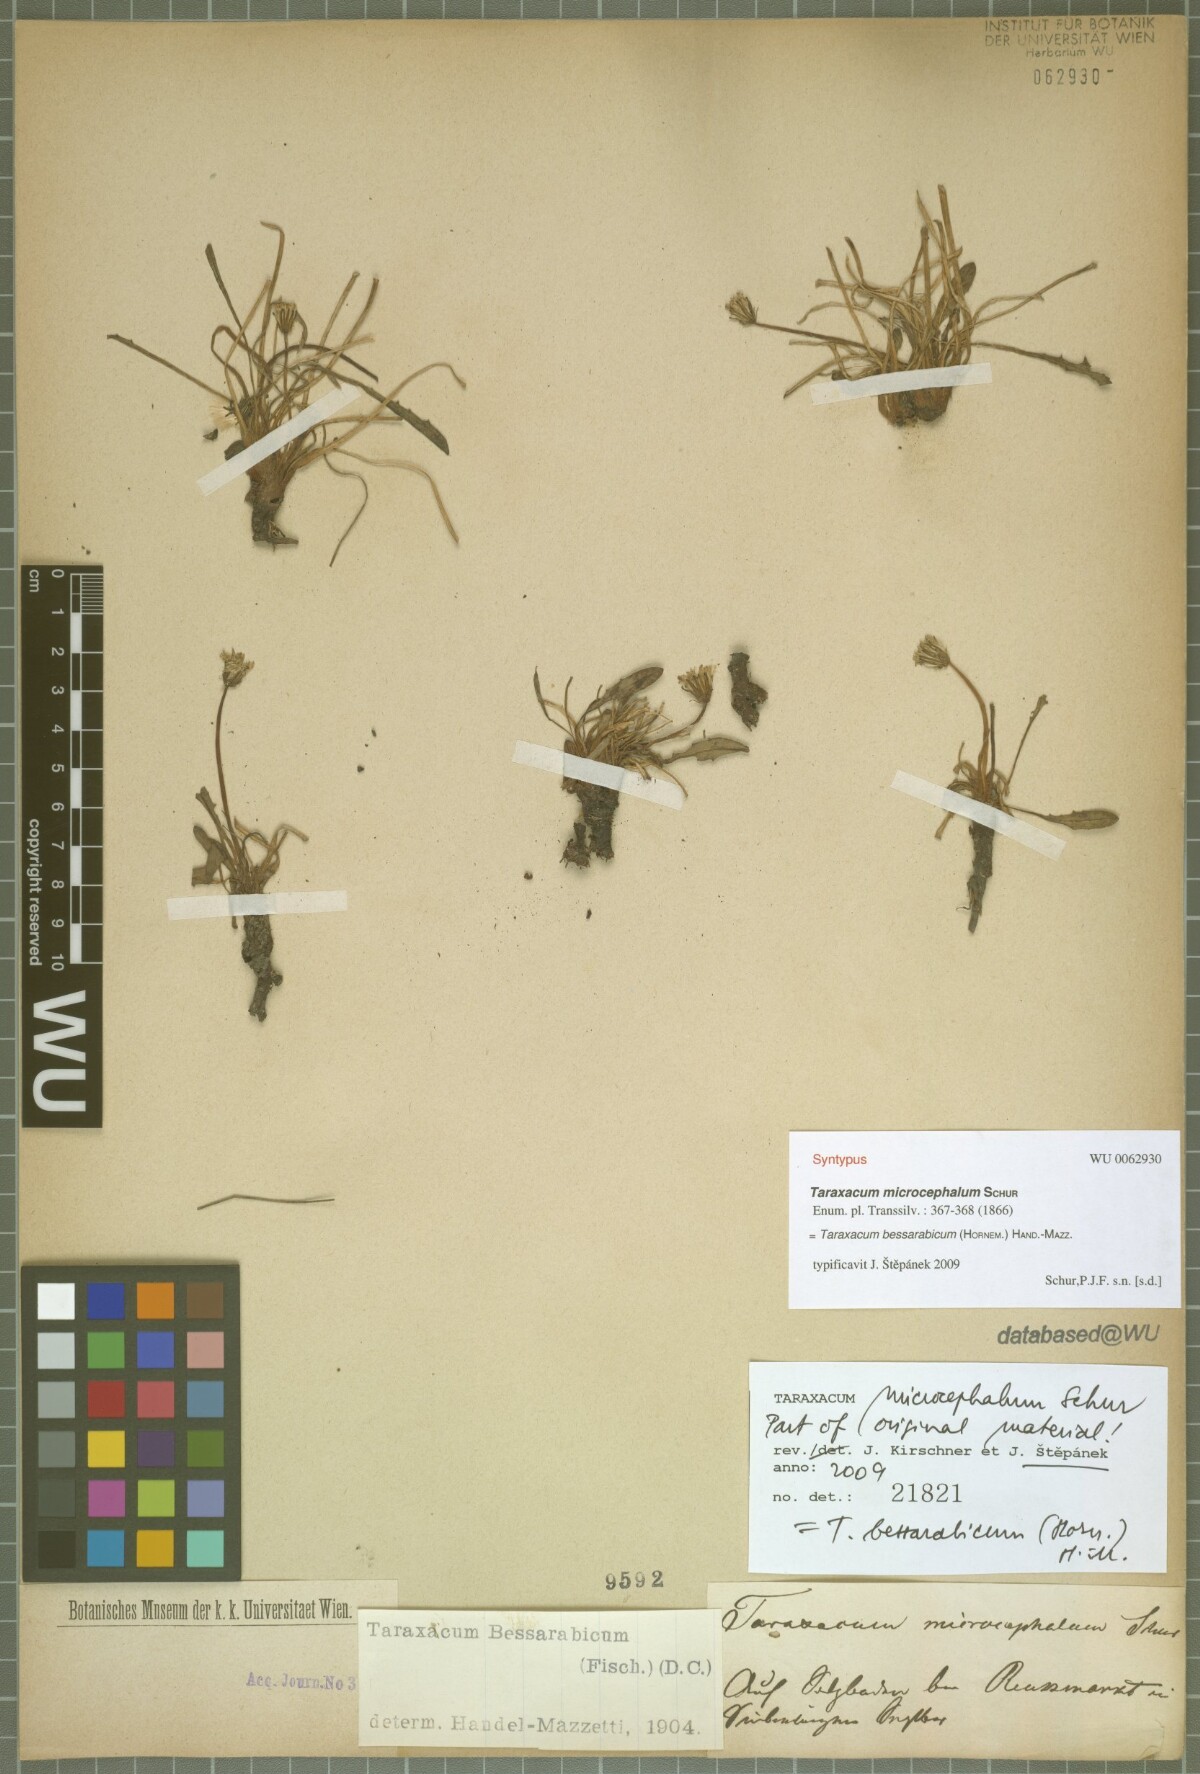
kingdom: Plantae
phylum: Tracheophyta
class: Magnoliopsida
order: Asterales
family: Asteraceae
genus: Taraxacum
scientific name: Taraxacum bessarabicum
